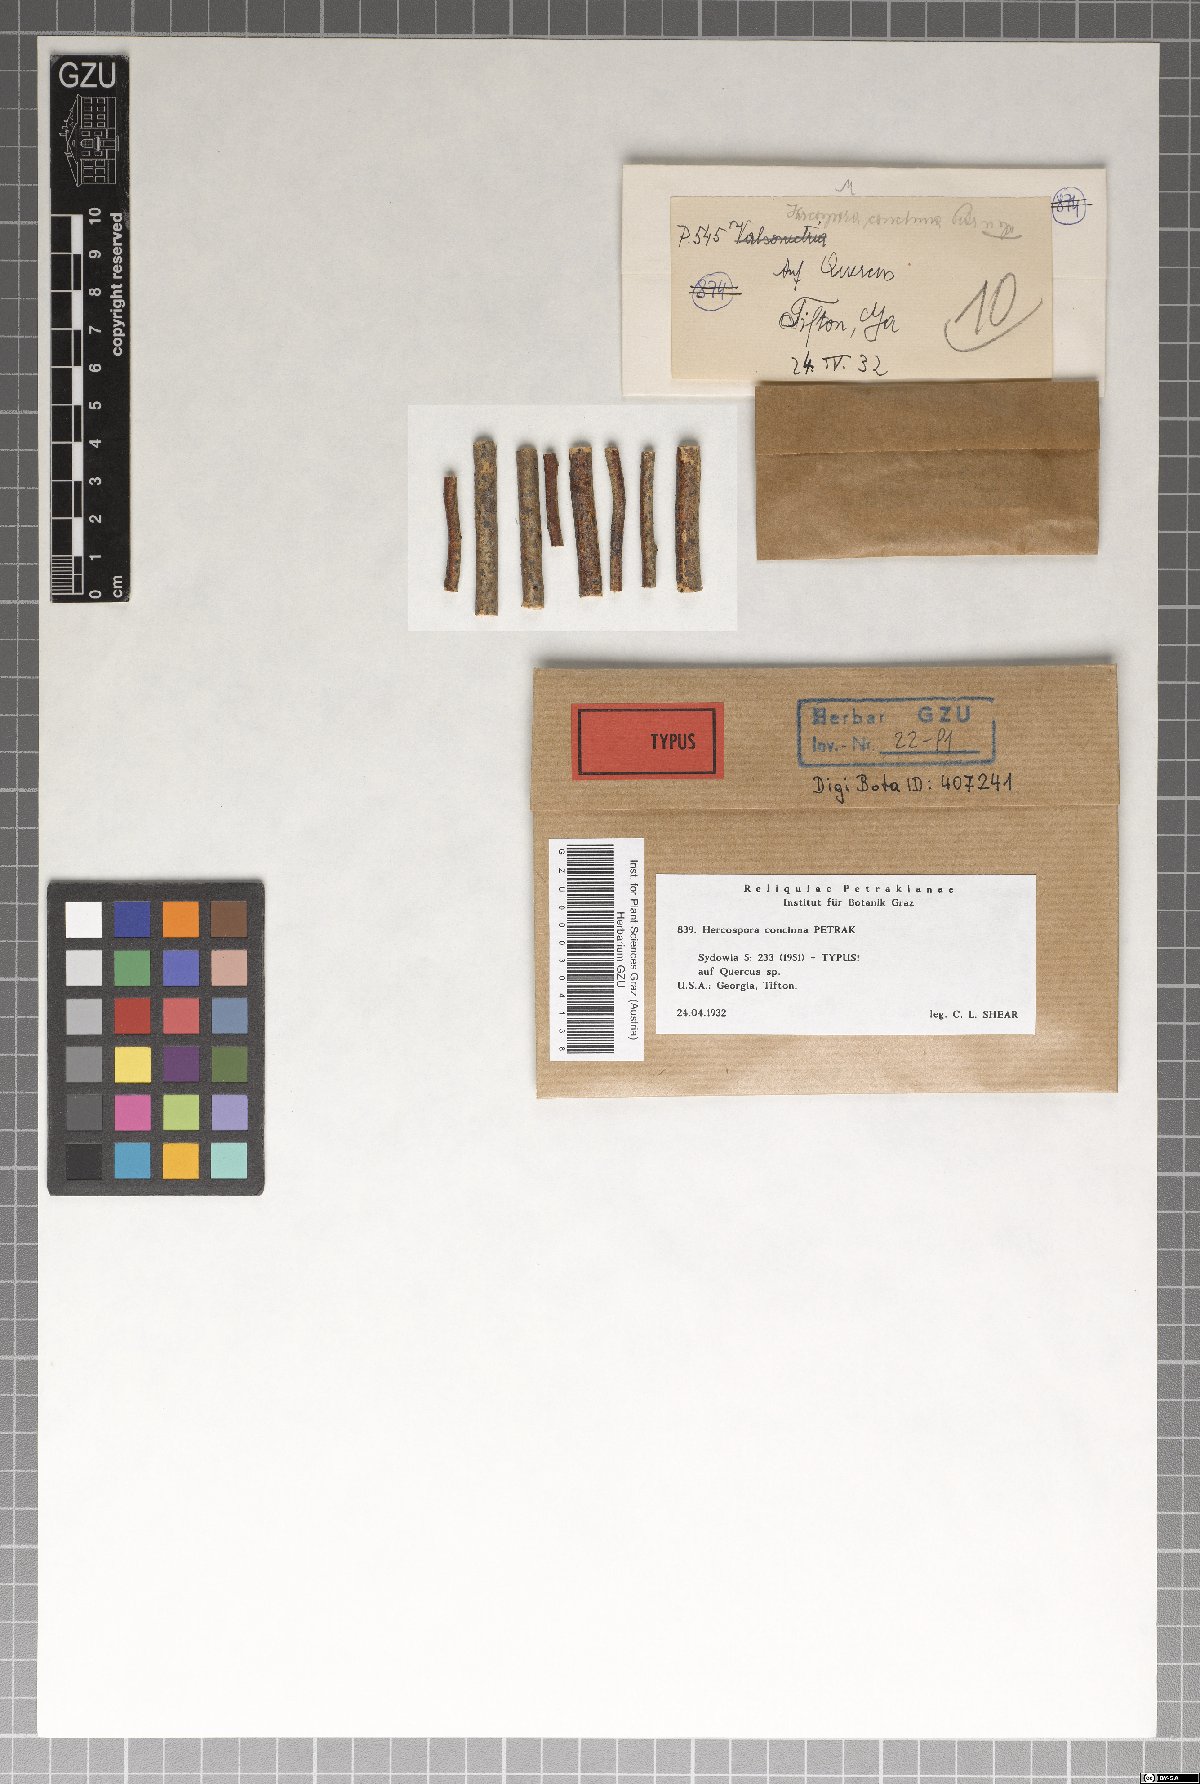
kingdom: Fungi
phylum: Ascomycota
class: Sordariomycetes
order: Diaporthales
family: Lamproconiaceae
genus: Hercospora
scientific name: Hercospora concinna
